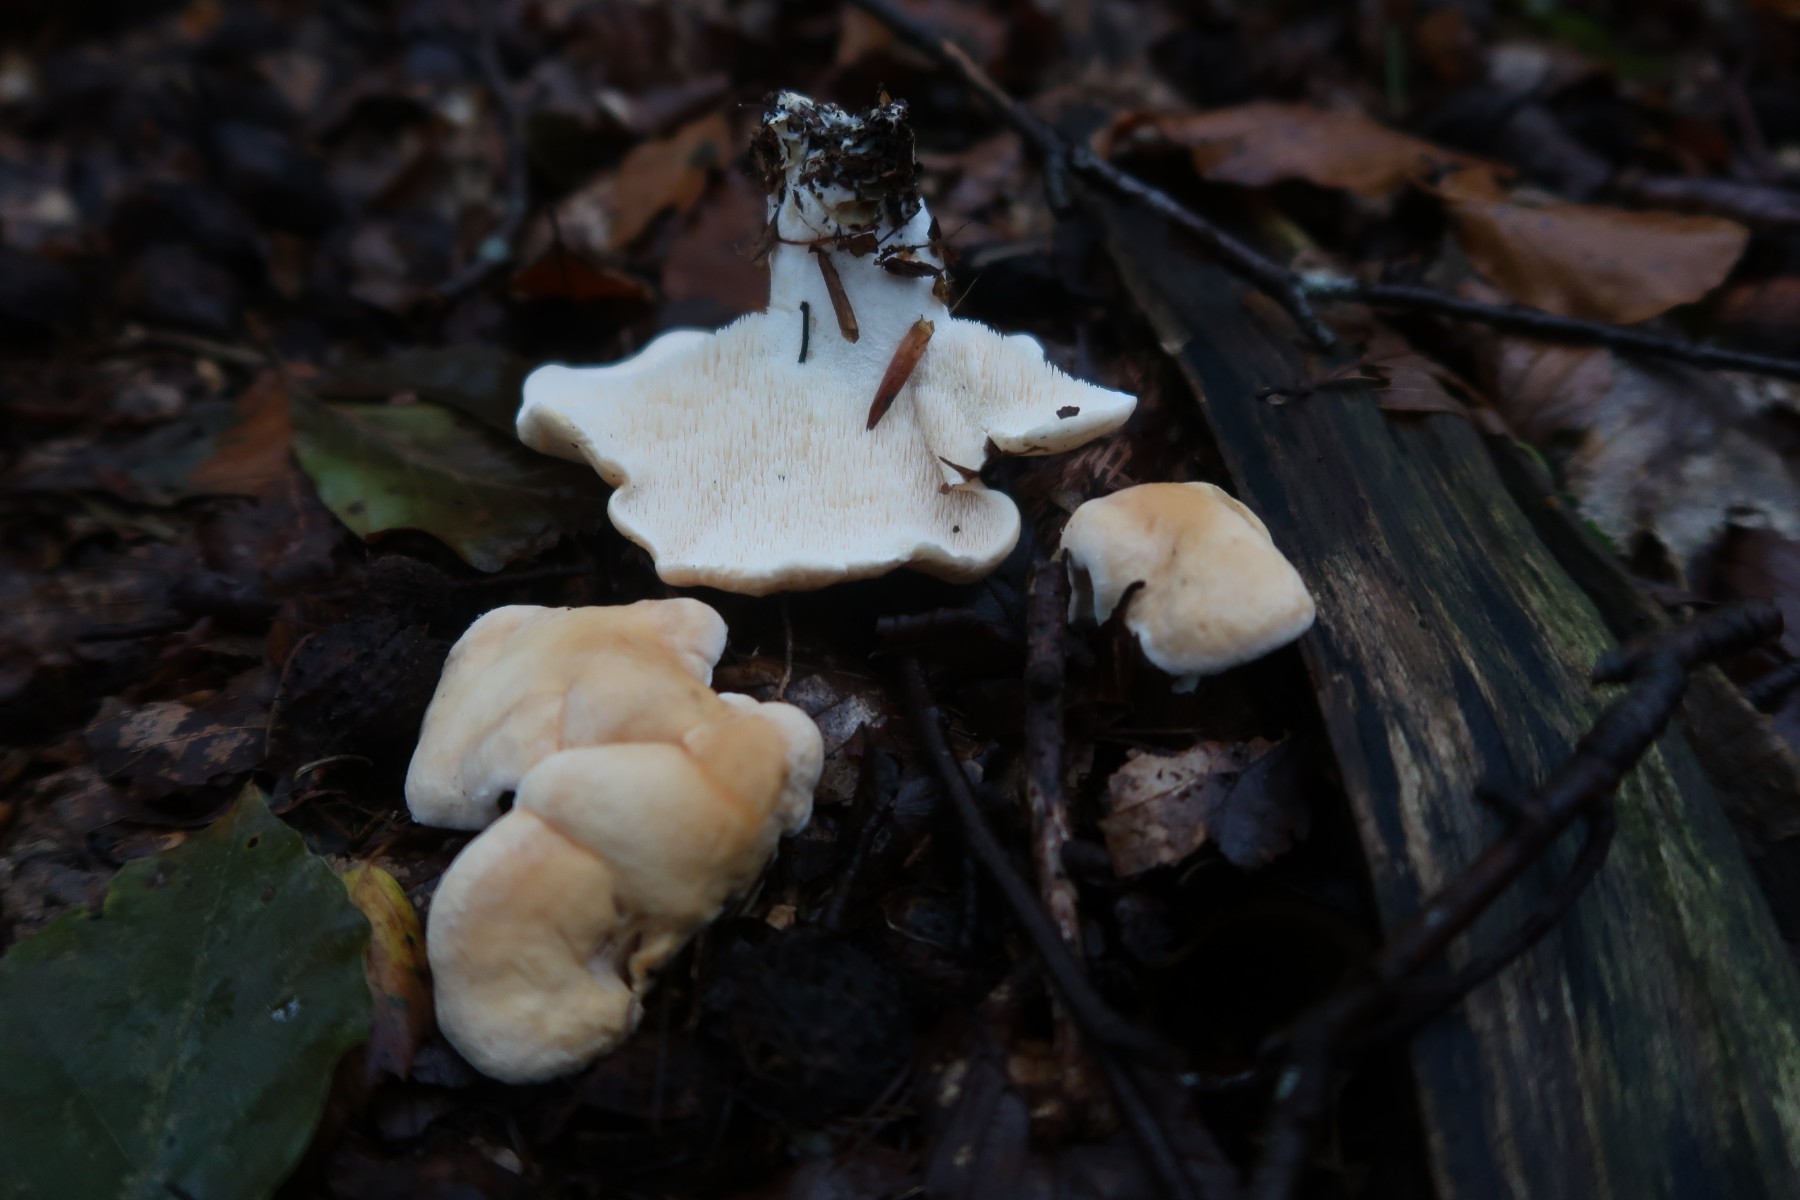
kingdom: Fungi
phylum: Basidiomycota
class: Agaricomycetes
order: Cantharellales
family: Hydnaceae
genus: Hydnum
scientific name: Hydnum repandum
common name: almindelig pigsvamp
